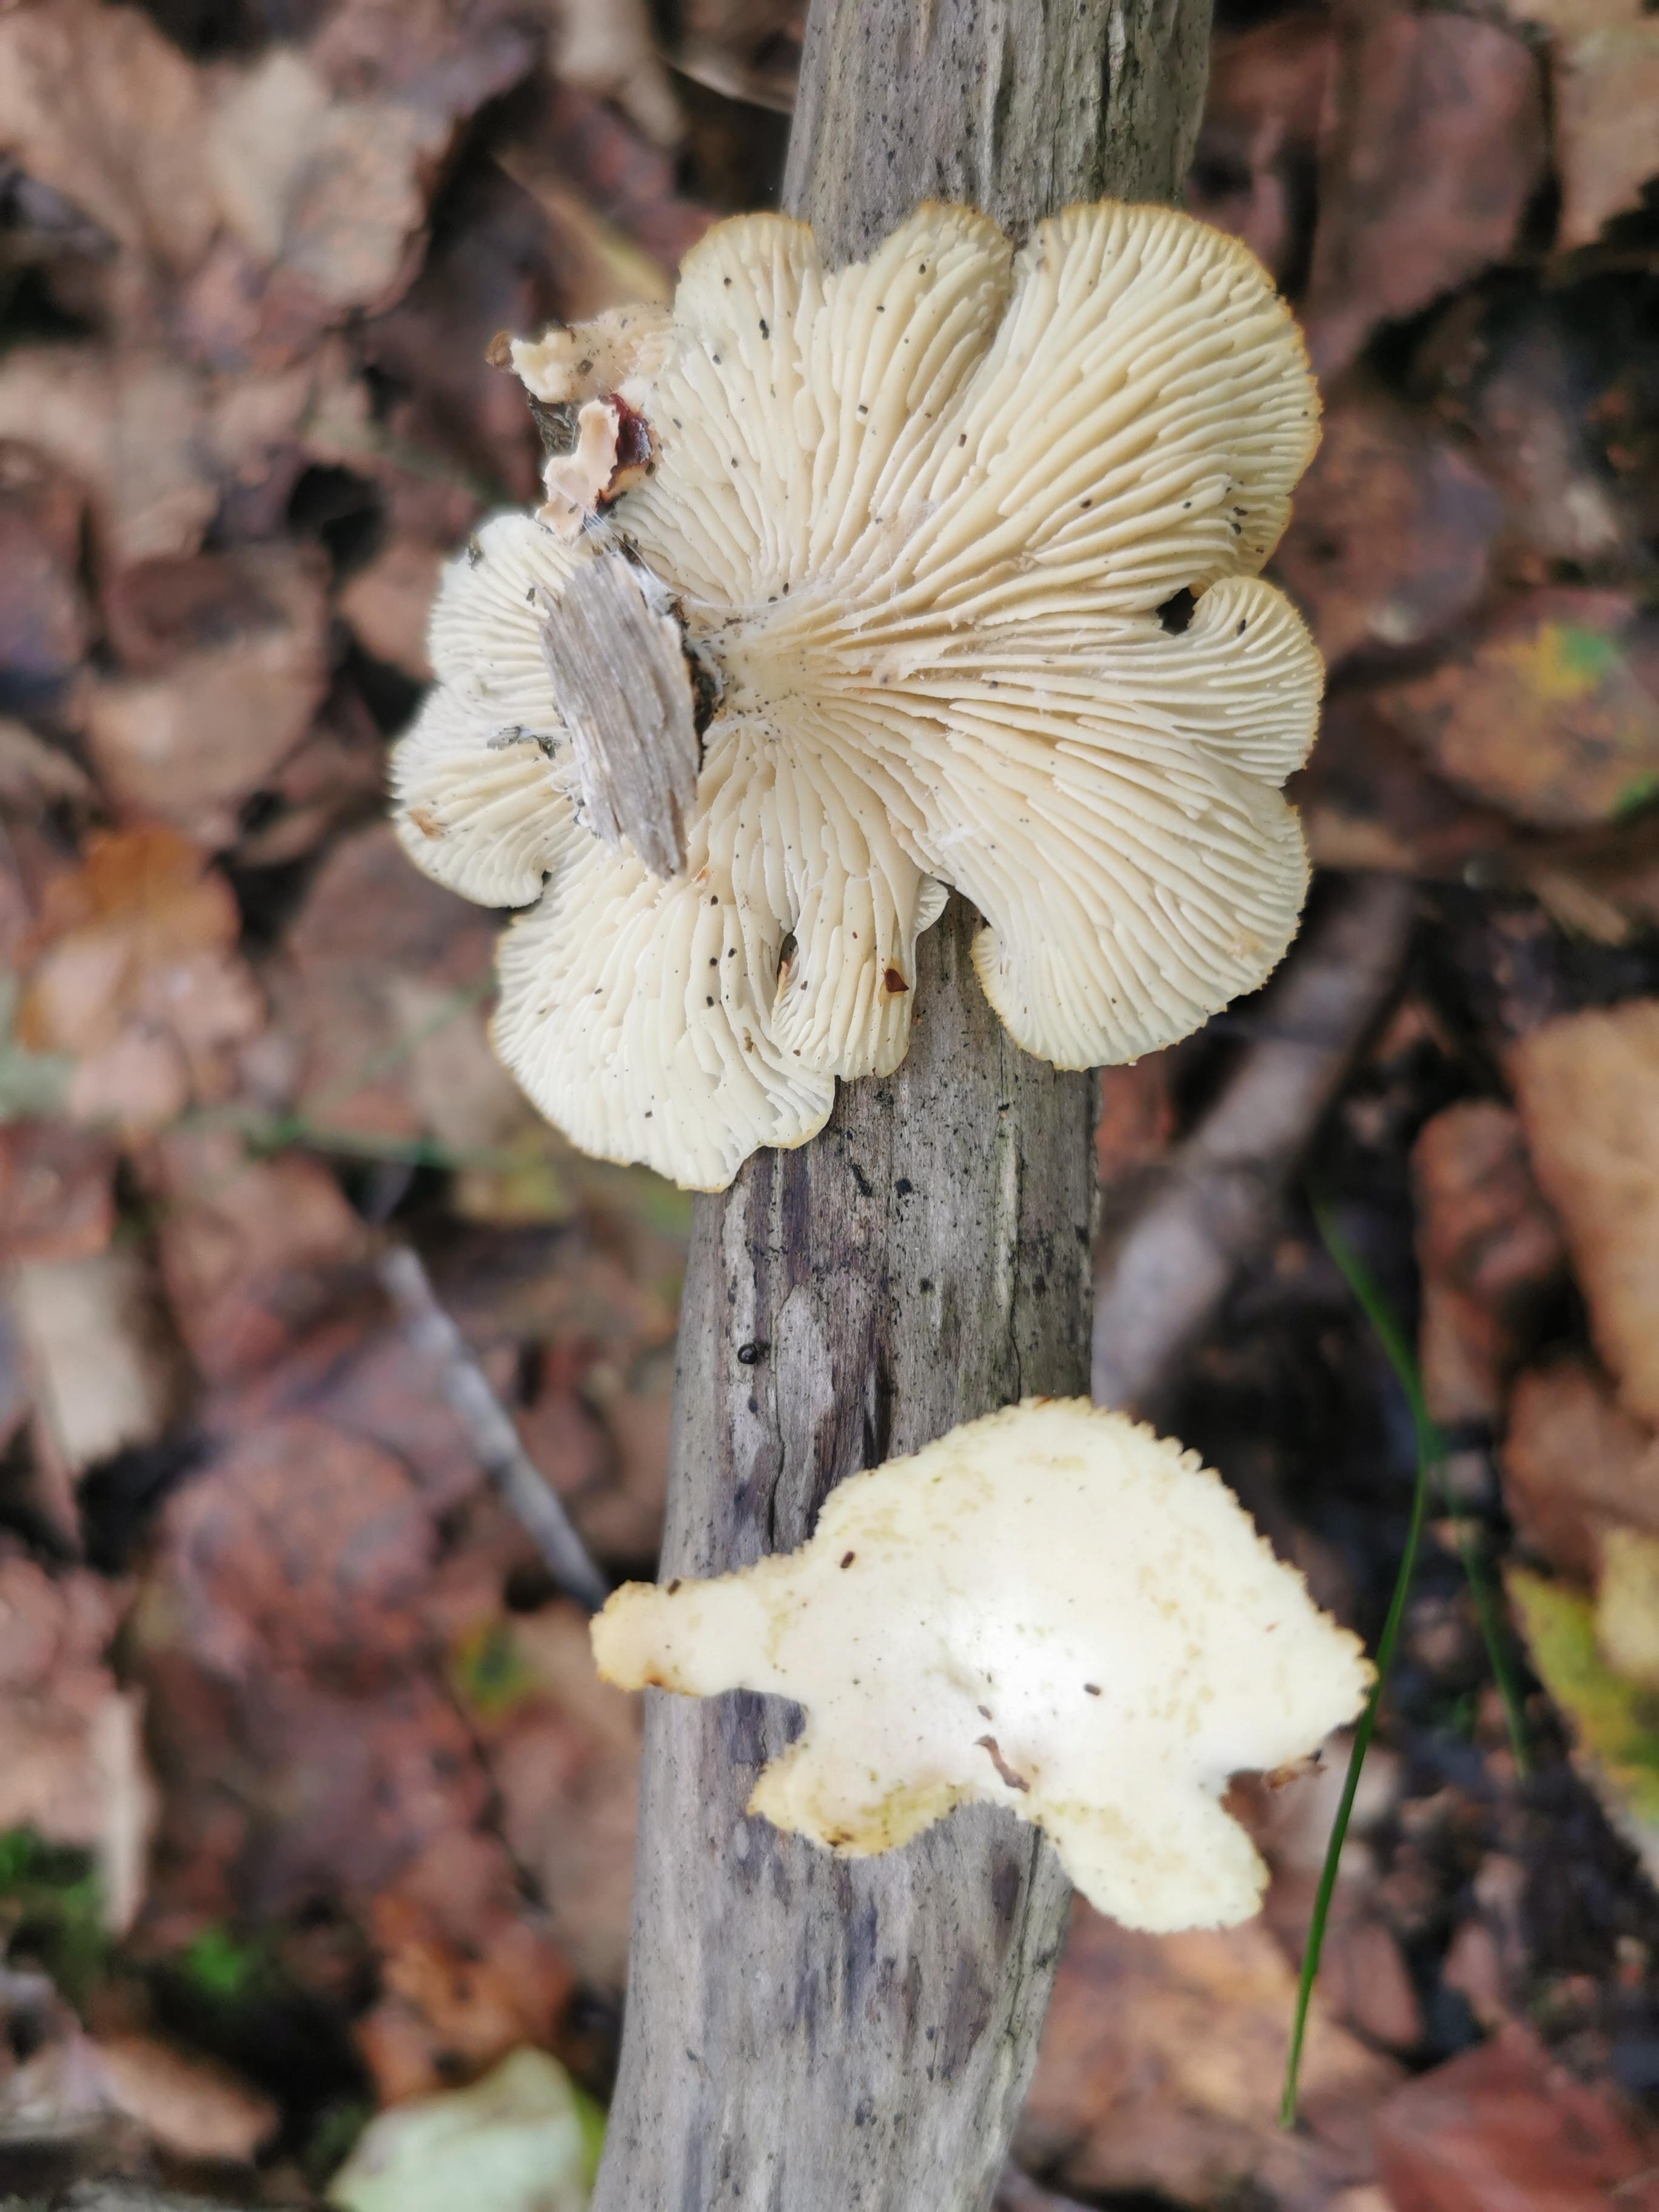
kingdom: Fungi
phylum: Basidiomycota
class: Agaricomycetes
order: Polyporales
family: Polyporaceae
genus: Neofavolus
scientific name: Neofavolus suavissimus
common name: anishat
